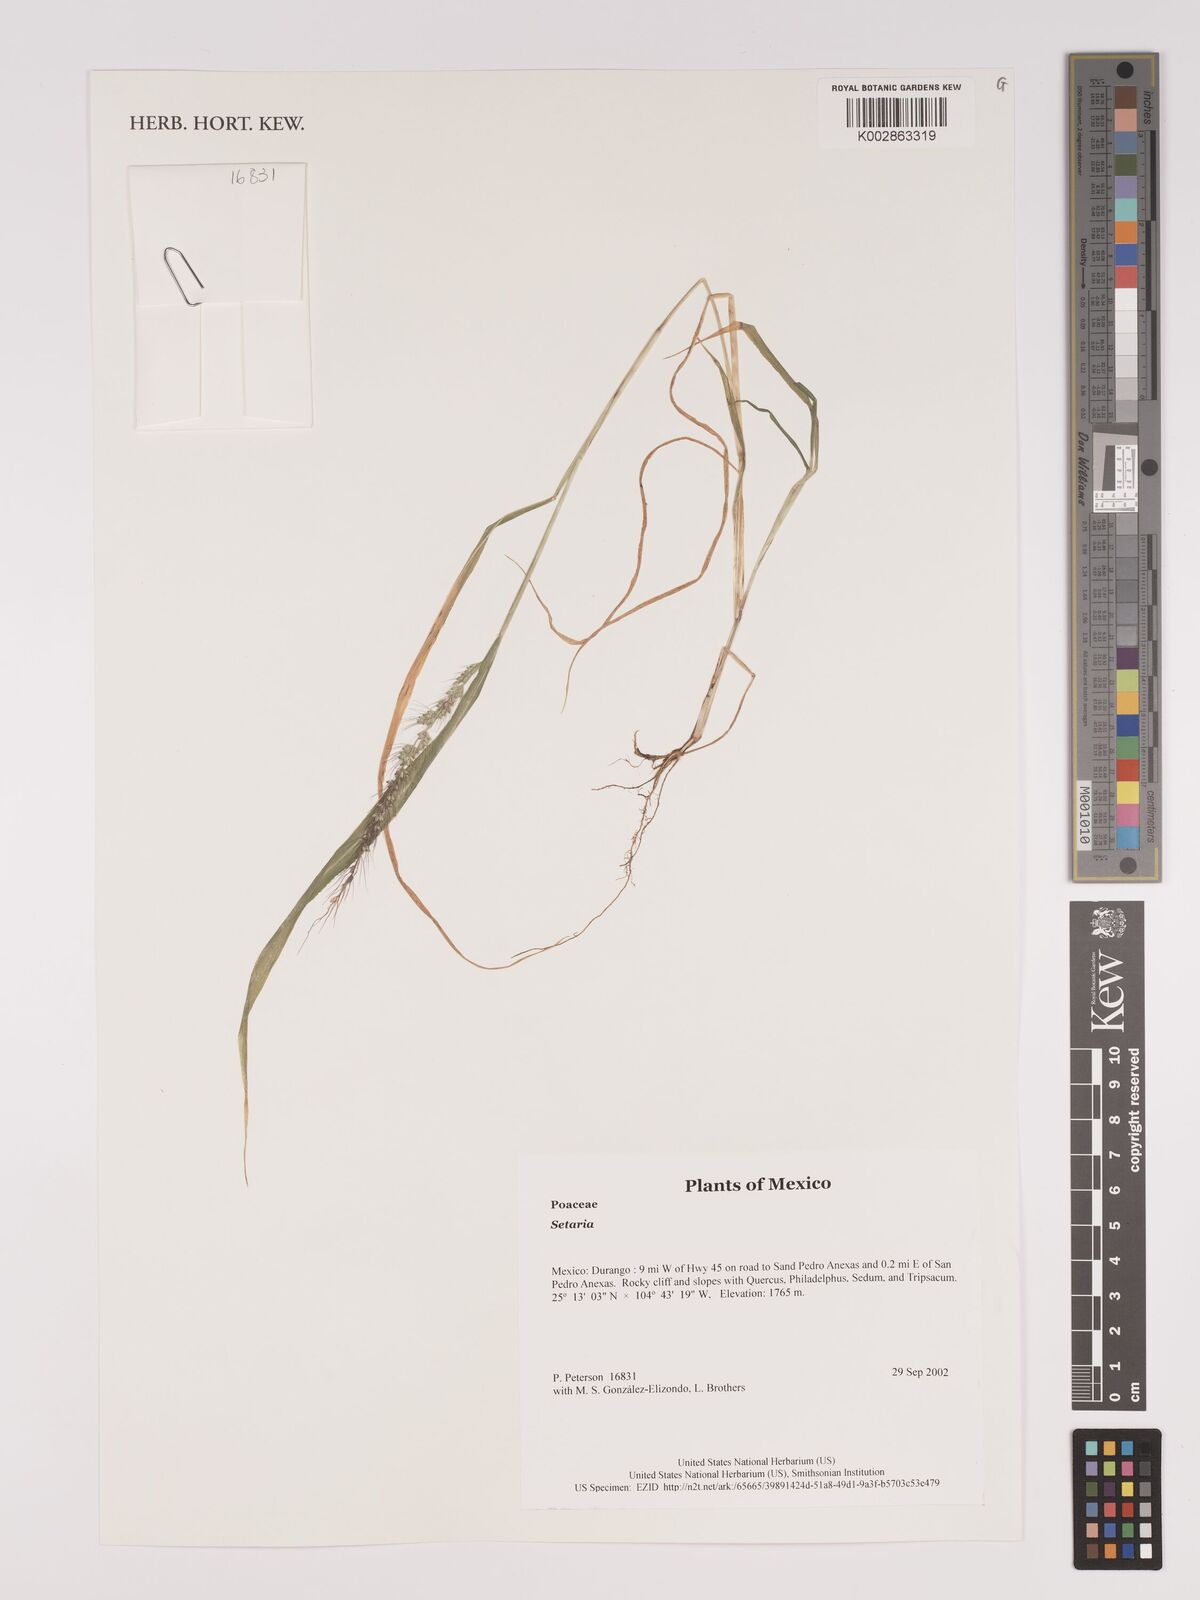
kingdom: Plantae
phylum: Tracheophyta
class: Liliopsida
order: Poales
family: Poaceae
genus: Setaria
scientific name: Setaria
